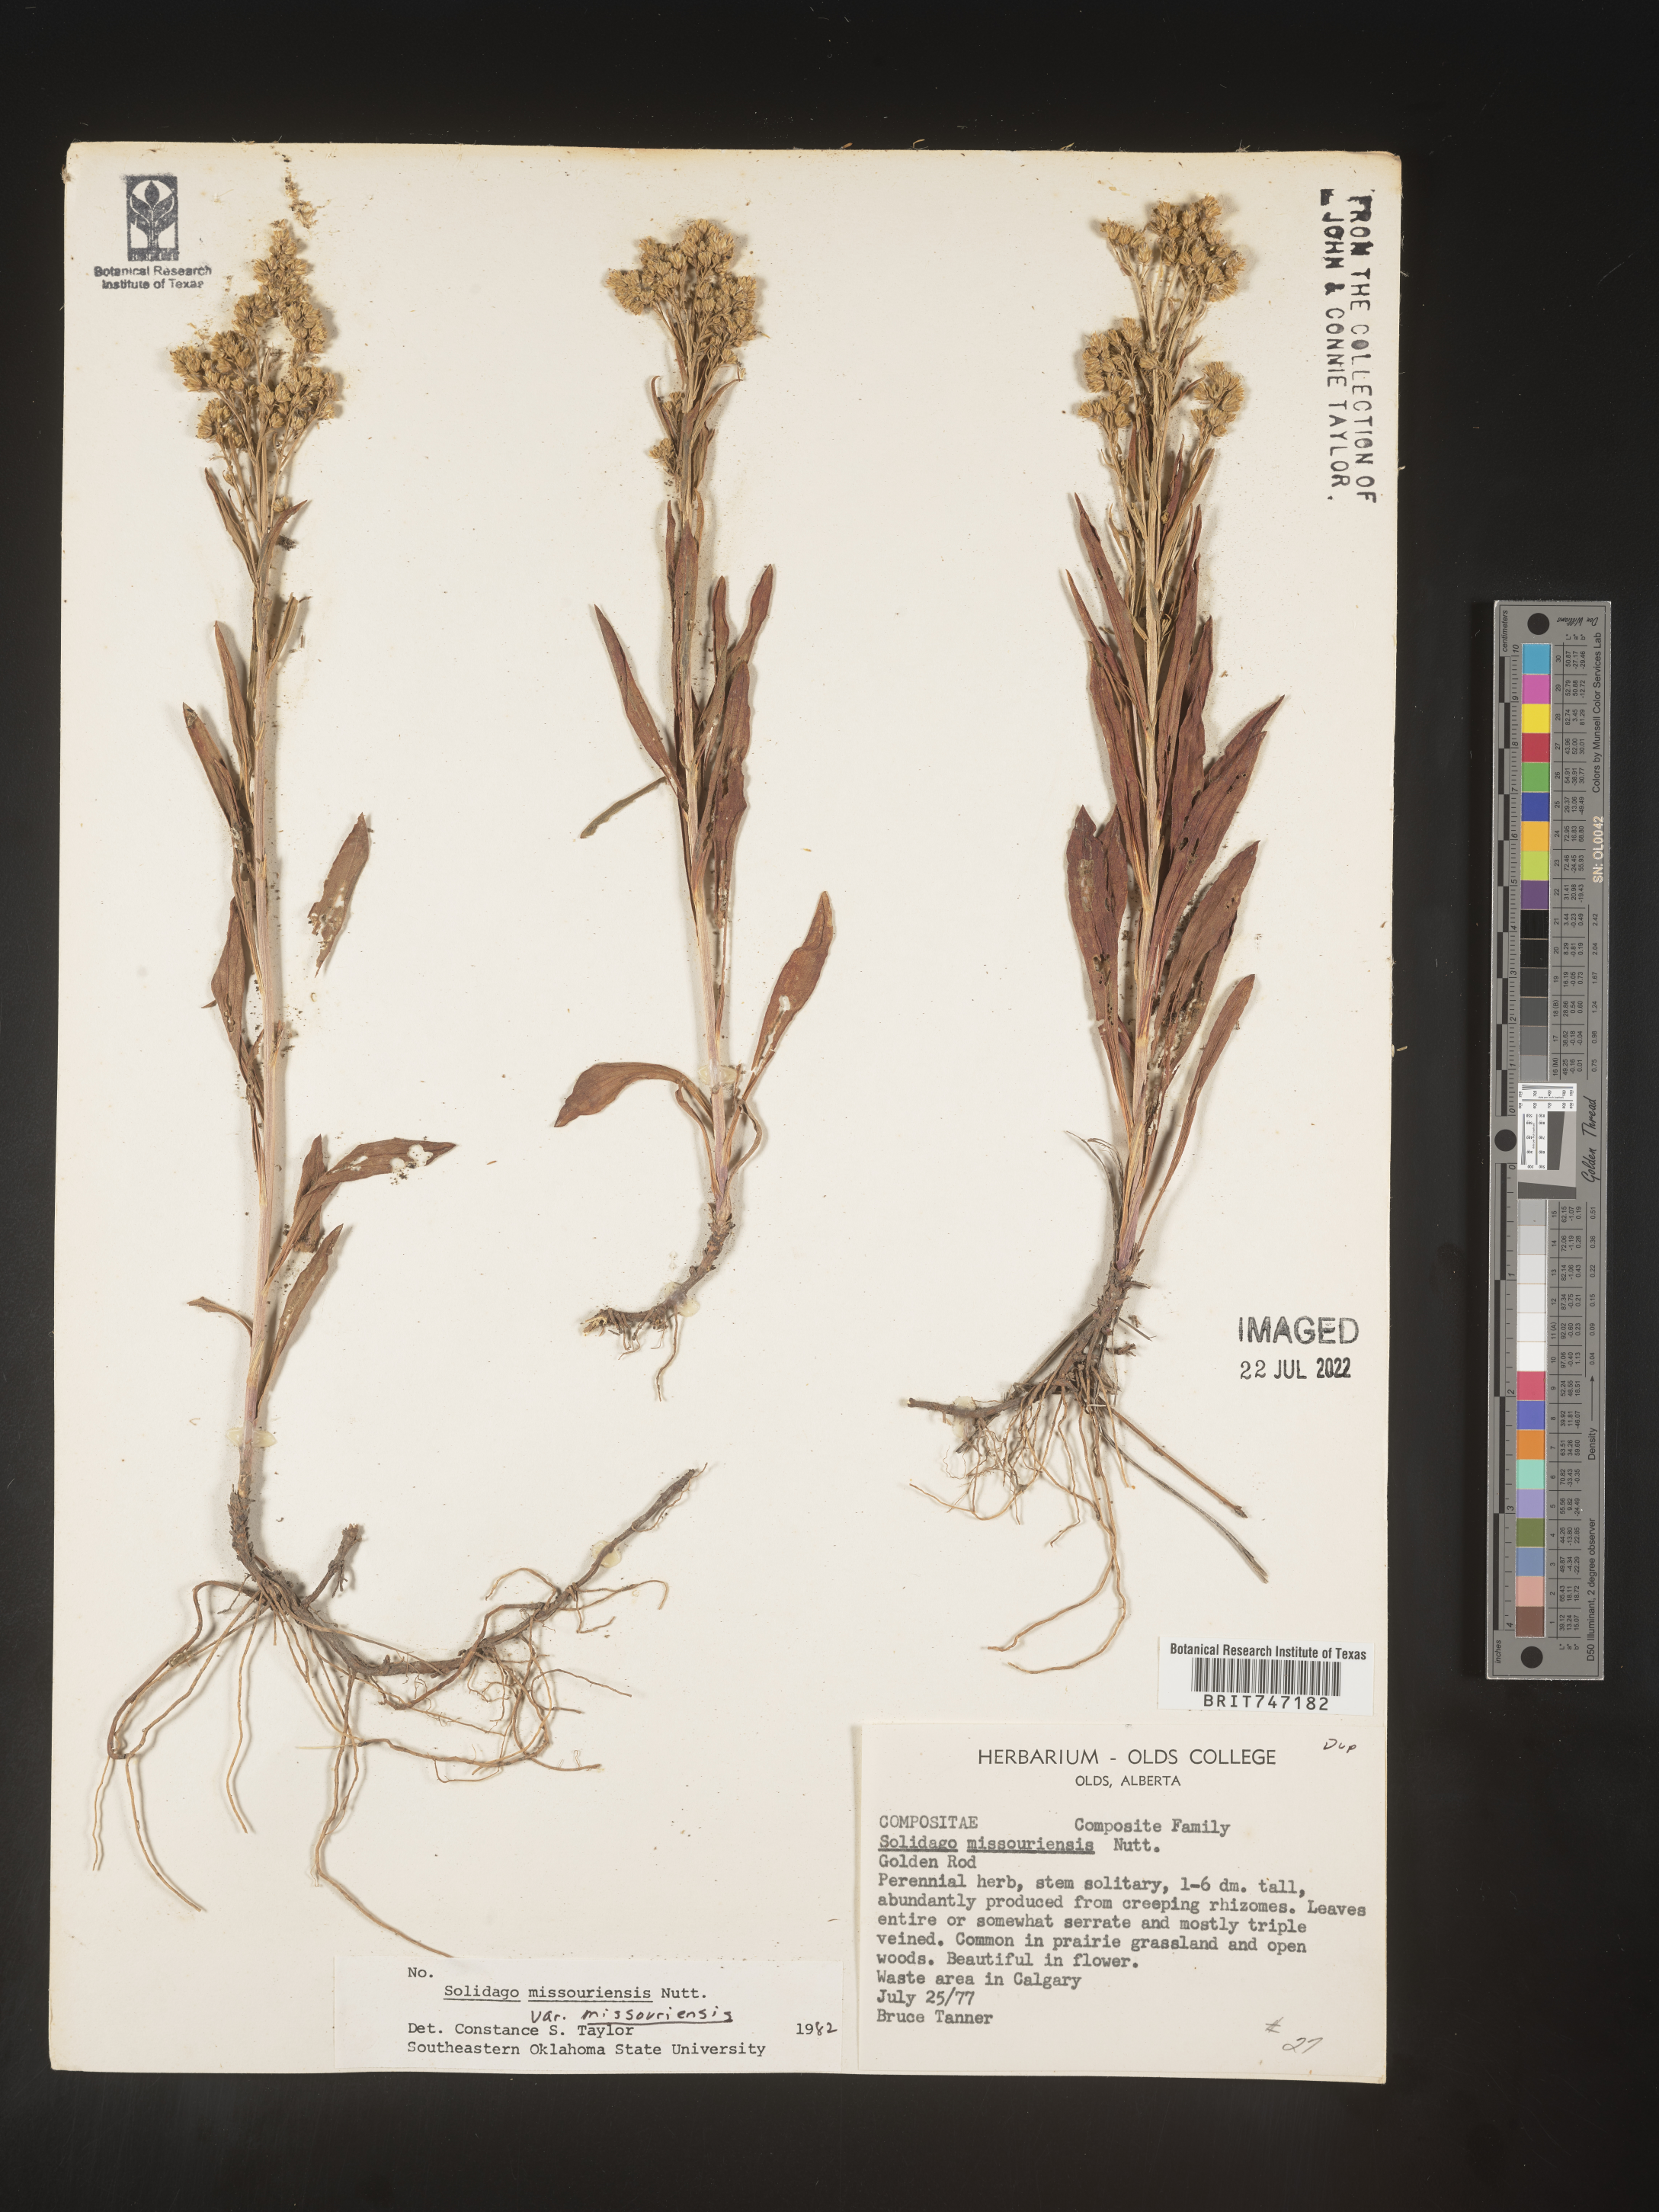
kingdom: Plantae
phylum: Tracheophyta
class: Magnoliopsida
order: Asterales
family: Asteraceae
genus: Solidago
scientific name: Solidago missouriensis
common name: Prairie goldenrod
